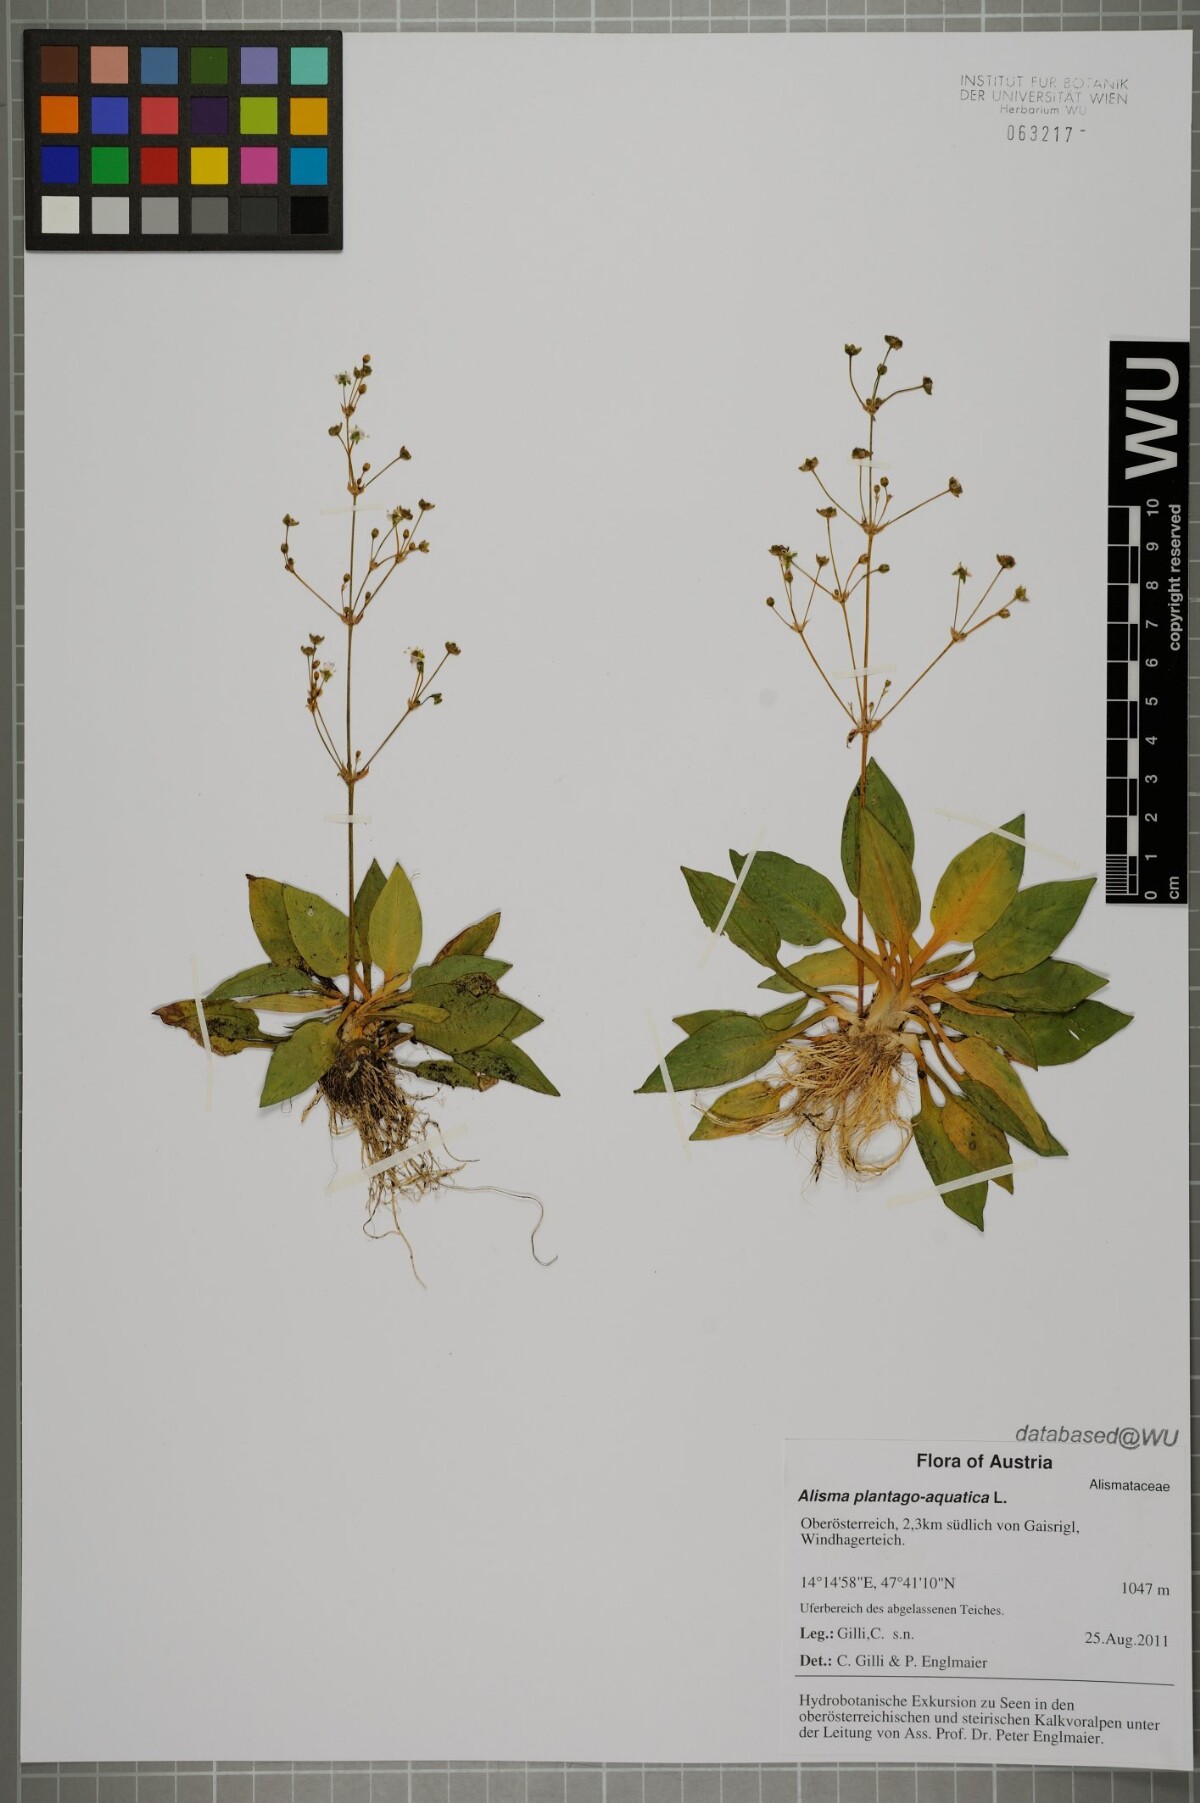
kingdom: Plantae
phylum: Tracheophyta
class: Liliopsida
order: Alismatales
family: Alismataceae
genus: Alisma
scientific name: Alisma plantago-aquatica
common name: Water-plantain
